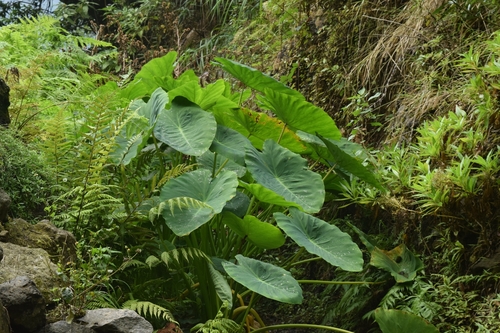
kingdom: Plantae
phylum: Tracheophyta
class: Liliopsida
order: Alismatales
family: Araceae
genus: Colocasia
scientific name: Colocasia esculenta
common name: Taro
